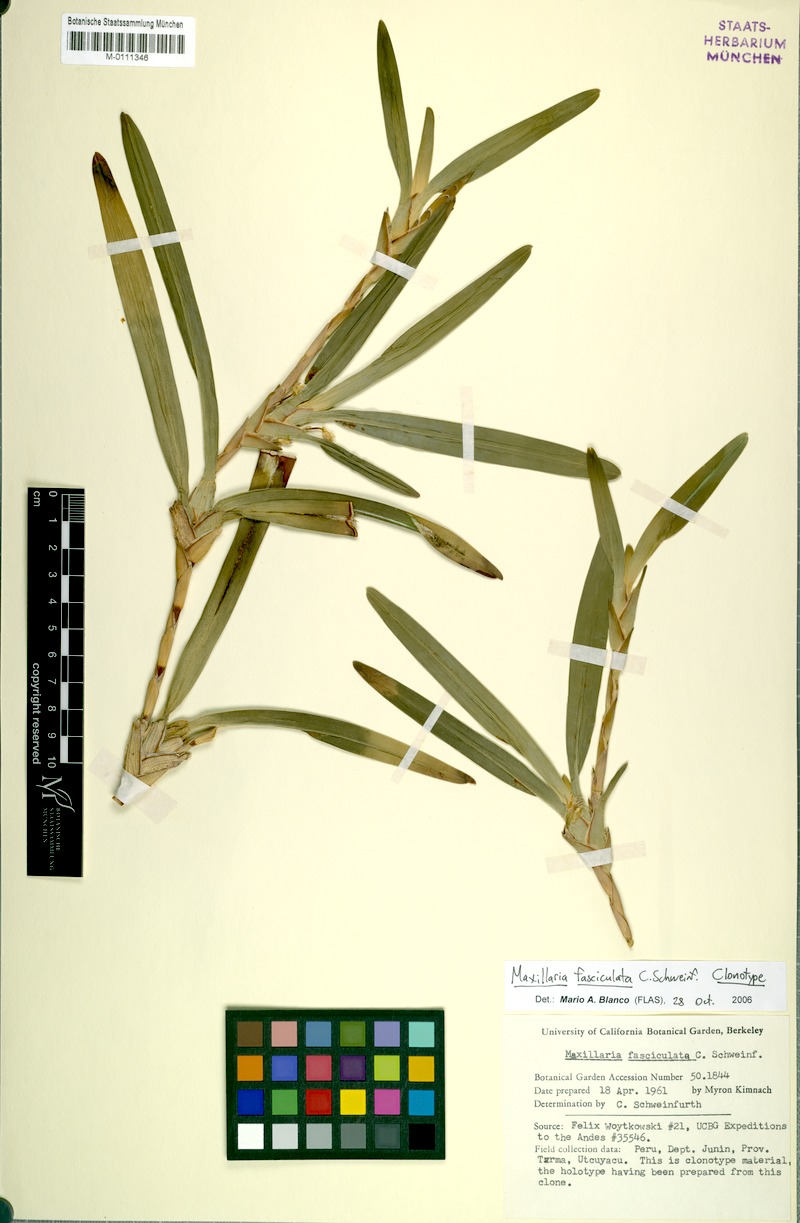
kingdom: Plantae
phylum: Tracheophyta
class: Liliopsida
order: Asparagales
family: Orchidaceae
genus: Maxillaria
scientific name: Maxillaria semiscabra
